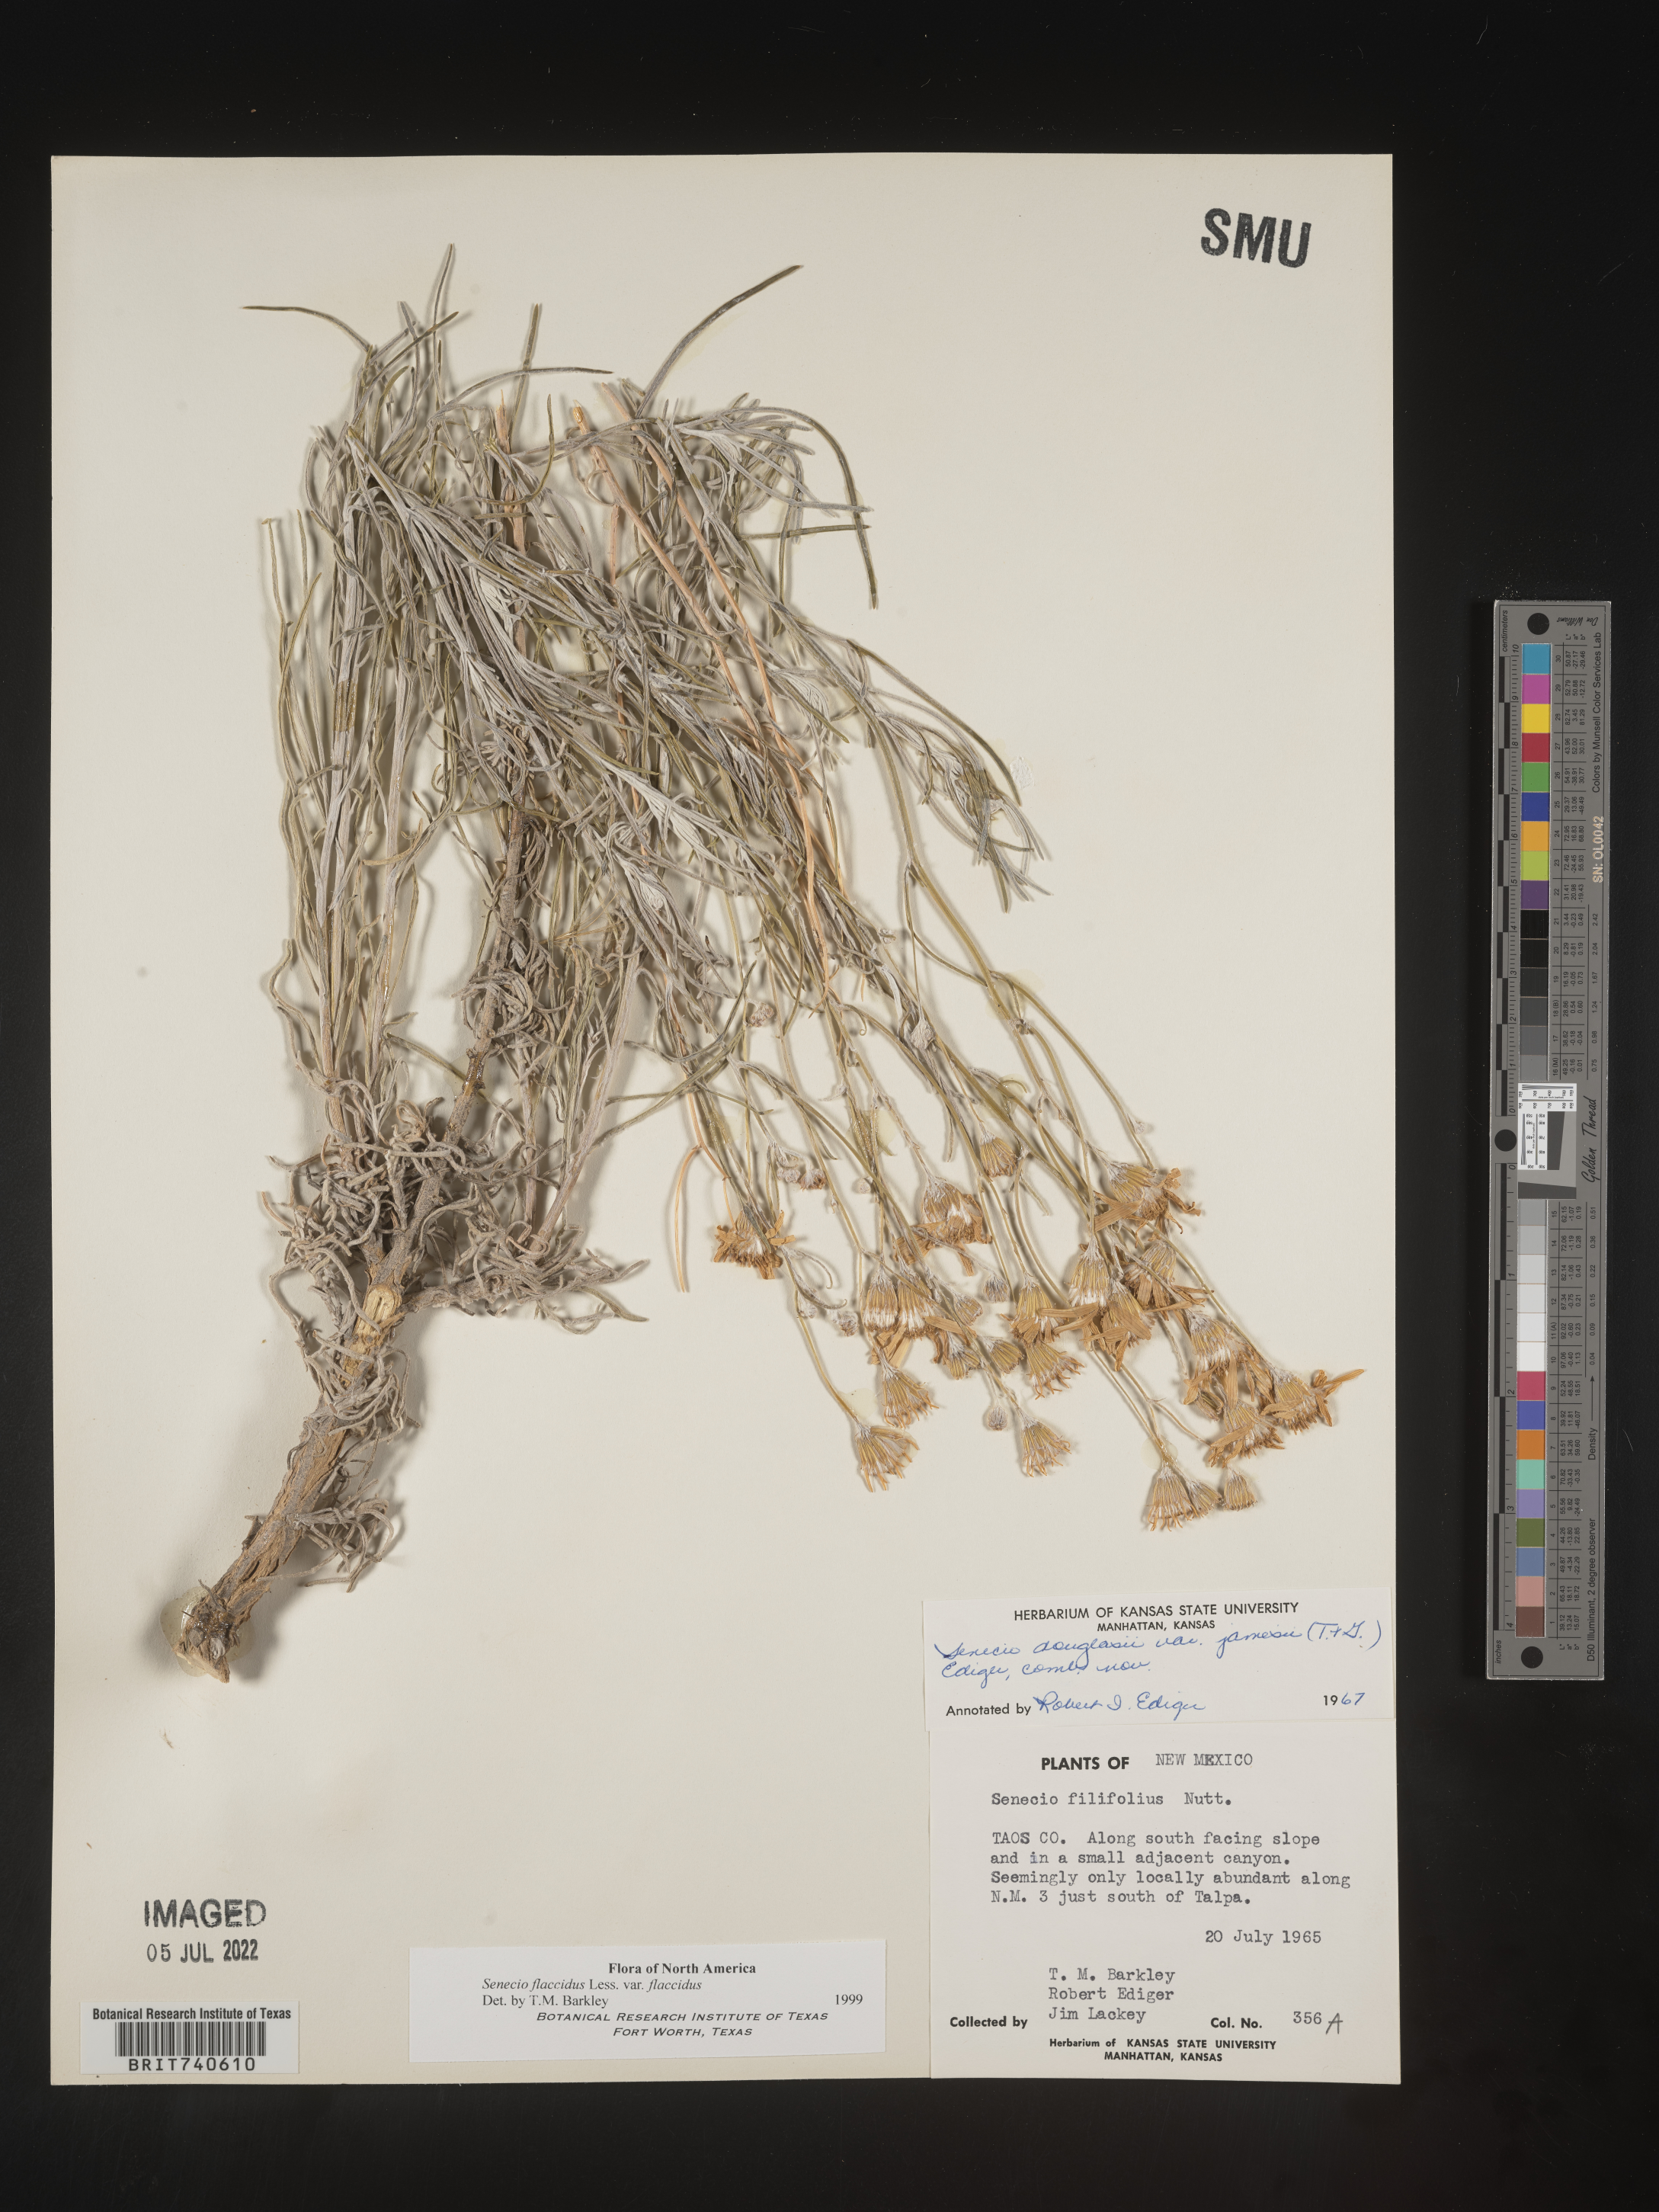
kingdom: Plantae
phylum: Tracheophyta
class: Magnoliopsida
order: Asterales
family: Asteraceae
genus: Senecio
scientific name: Senecio flaccidus
